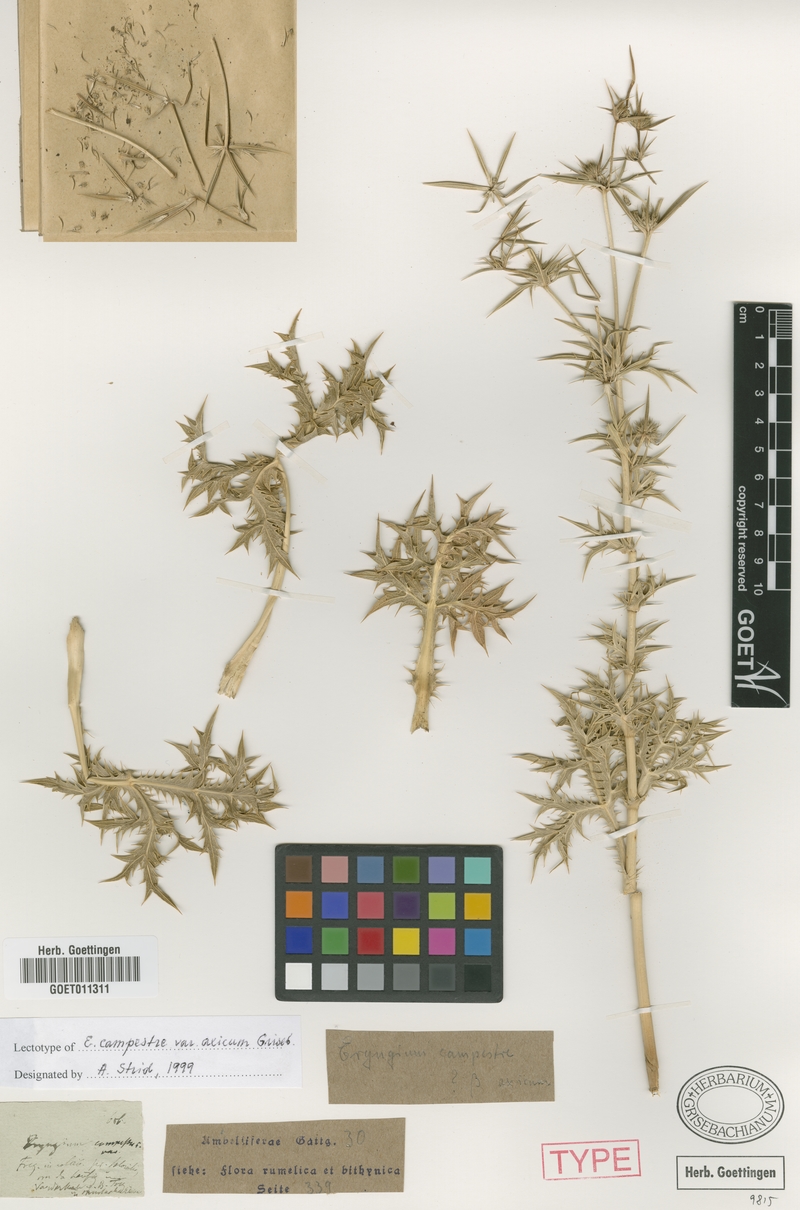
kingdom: Plantae
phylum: Tracheophyta
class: Magnoliopsida
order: Apiales
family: Apiaceae
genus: Eryngium
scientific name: Eryngium campestre
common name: Field eryngo
